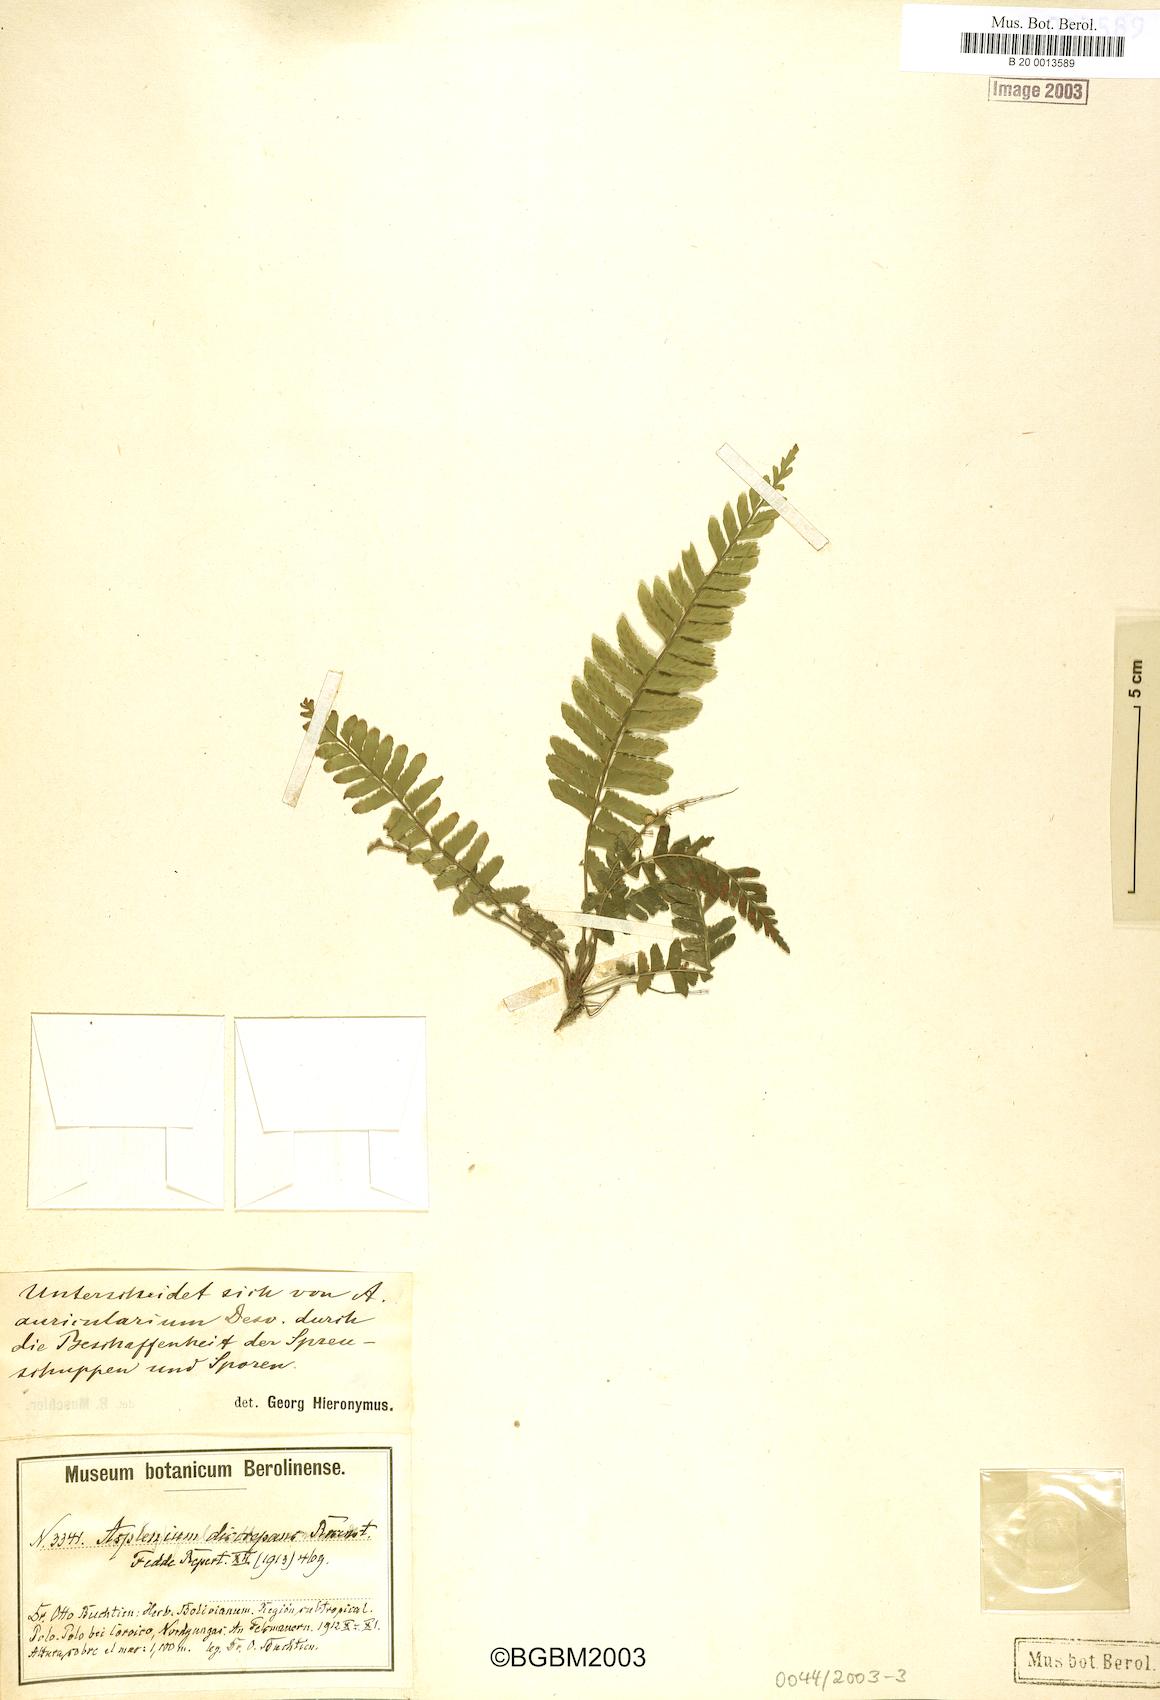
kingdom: Plantae
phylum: Tracheophyta
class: Polypodiopsida
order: Polypodiales
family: Aspleniaceae
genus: Asplenium
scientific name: Asplenium discrepans
